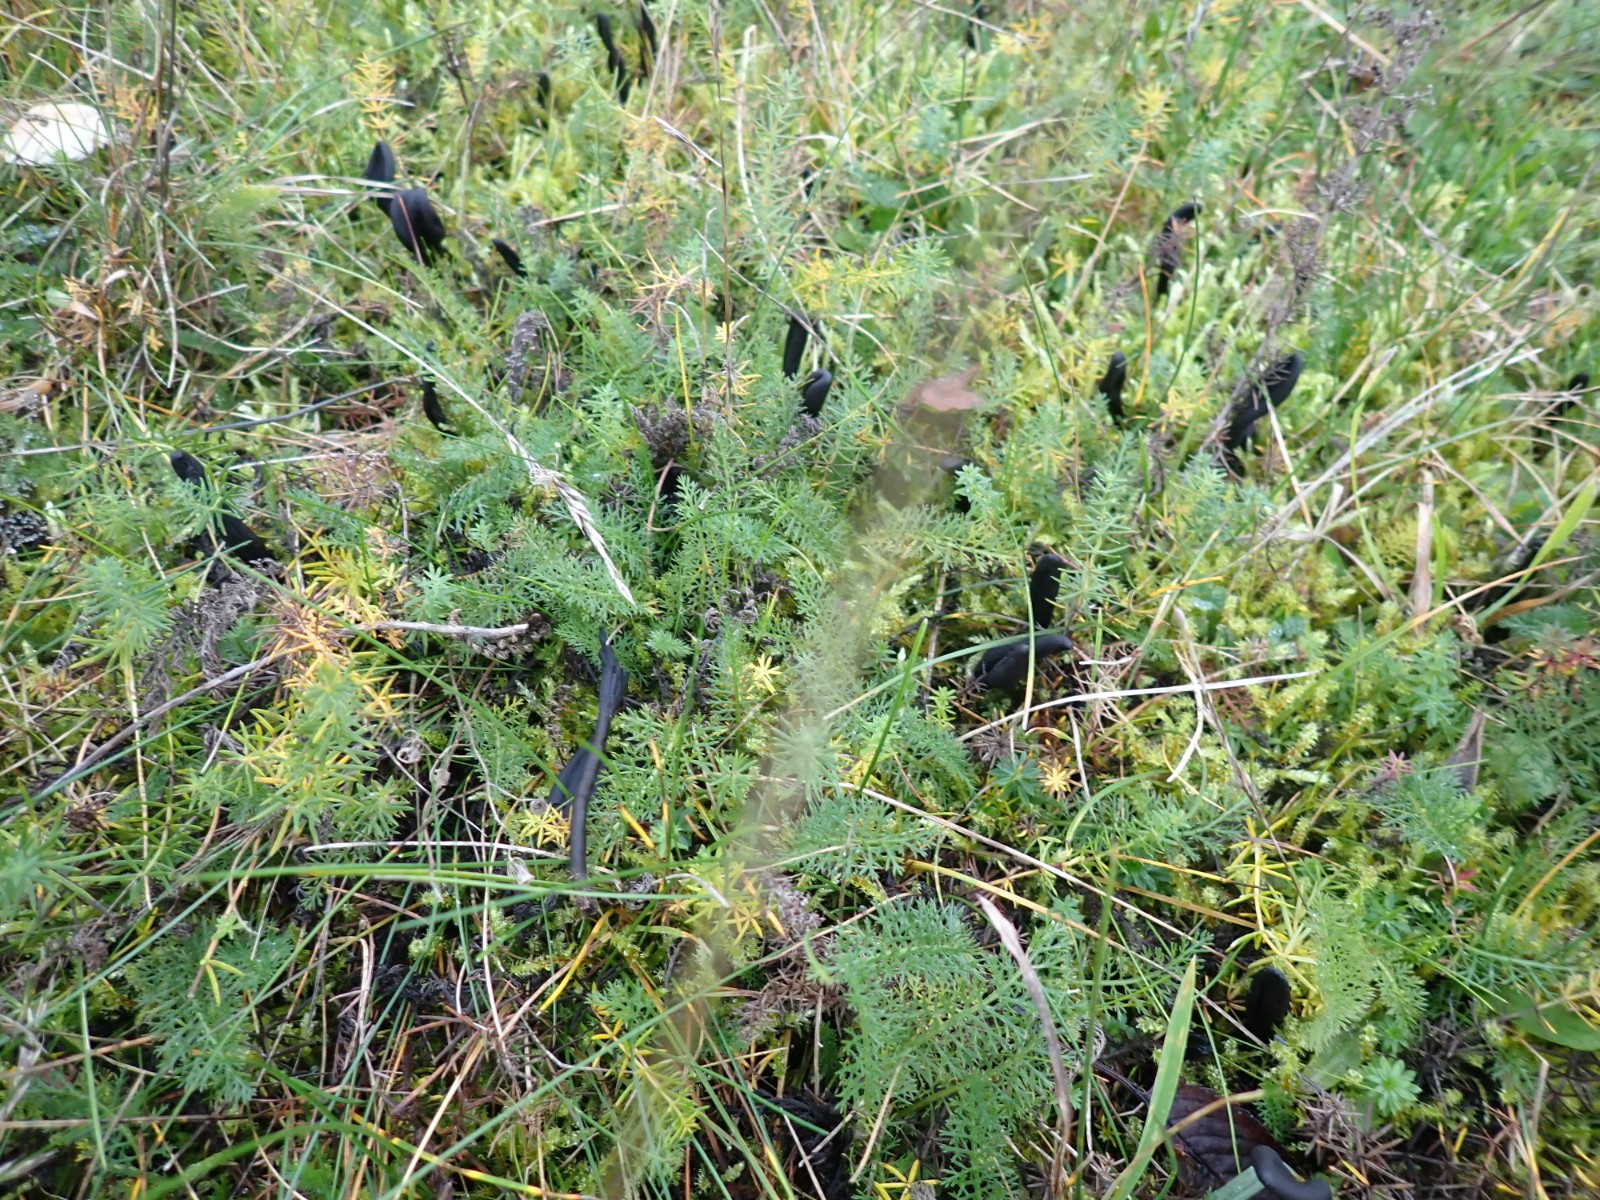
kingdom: Fungi
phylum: Ascomycota
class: Geoglossomycetes
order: Geoglossales
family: Geoglossaceae
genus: Geoglossum
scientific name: Geoglossum
